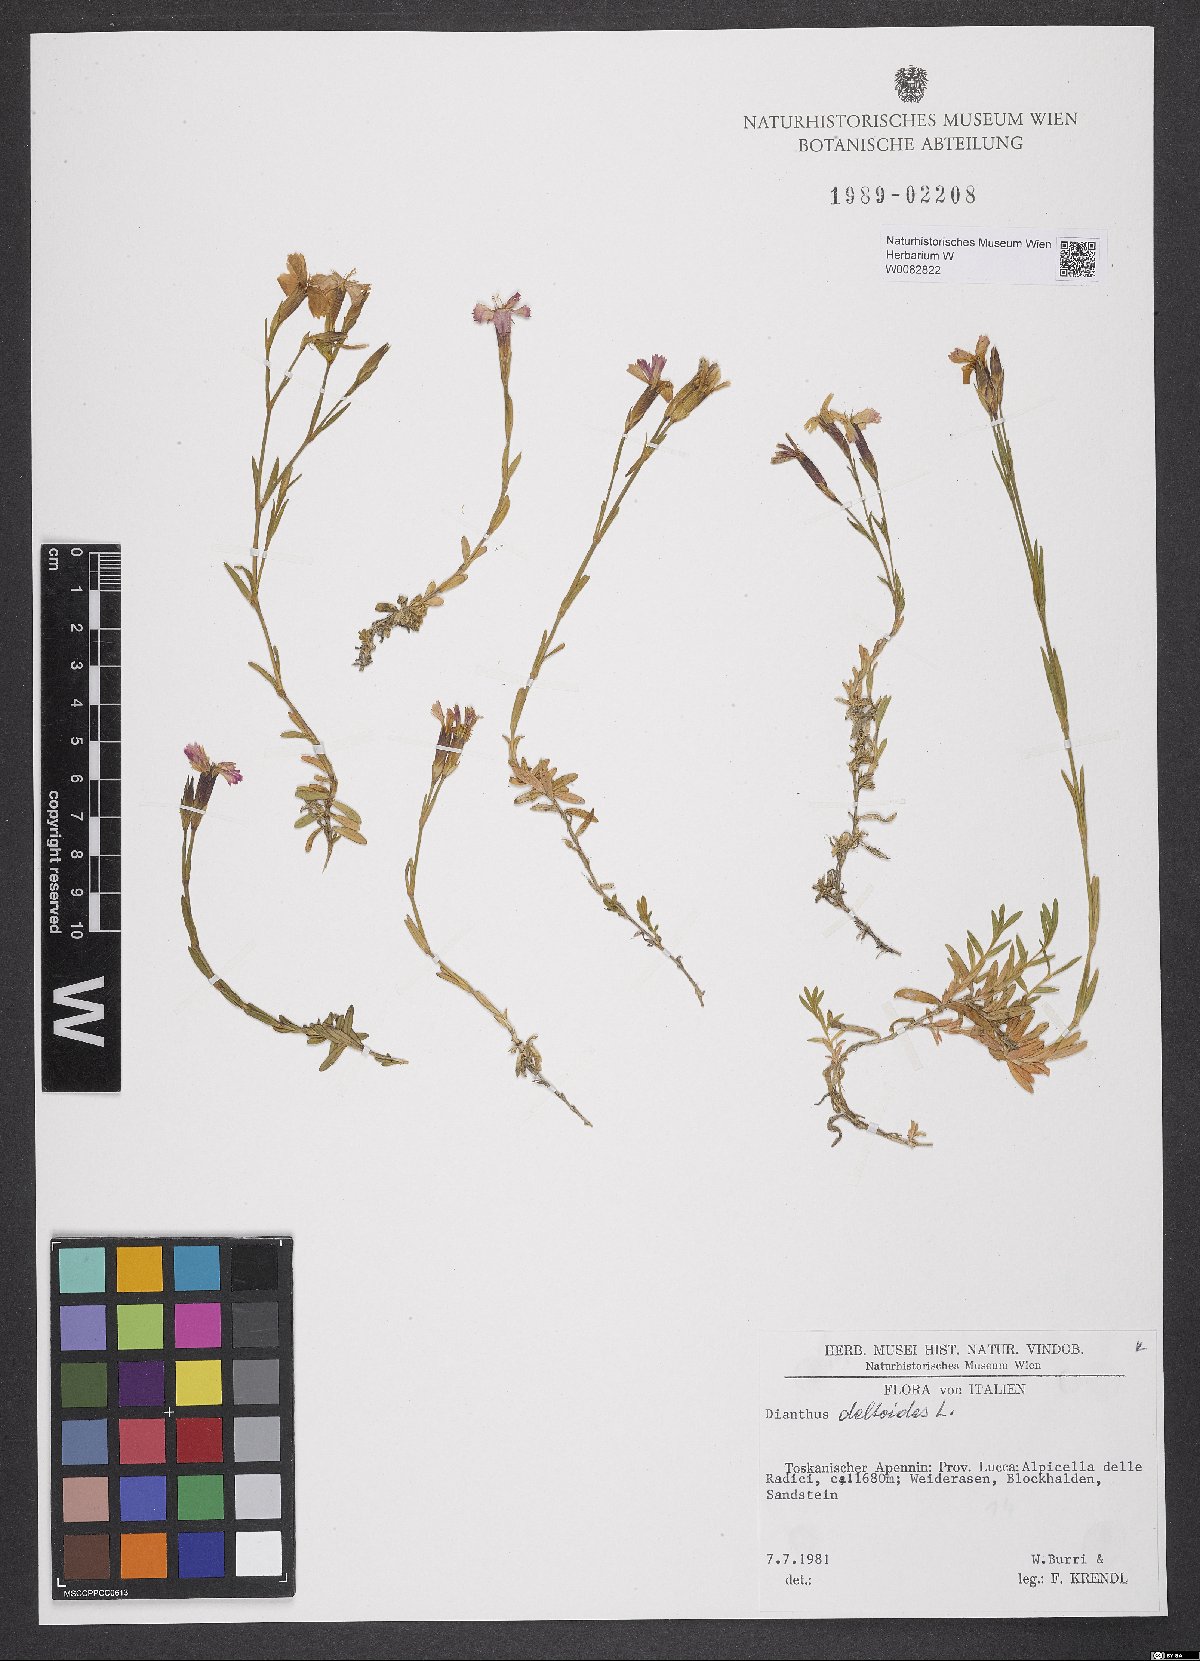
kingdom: Plantae
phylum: Tracheophyta
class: Magnoliopsida
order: Caryophyllales
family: Caryophyllaceae
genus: Dianthus
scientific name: Dianthus deltoides
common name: Maiden pink
